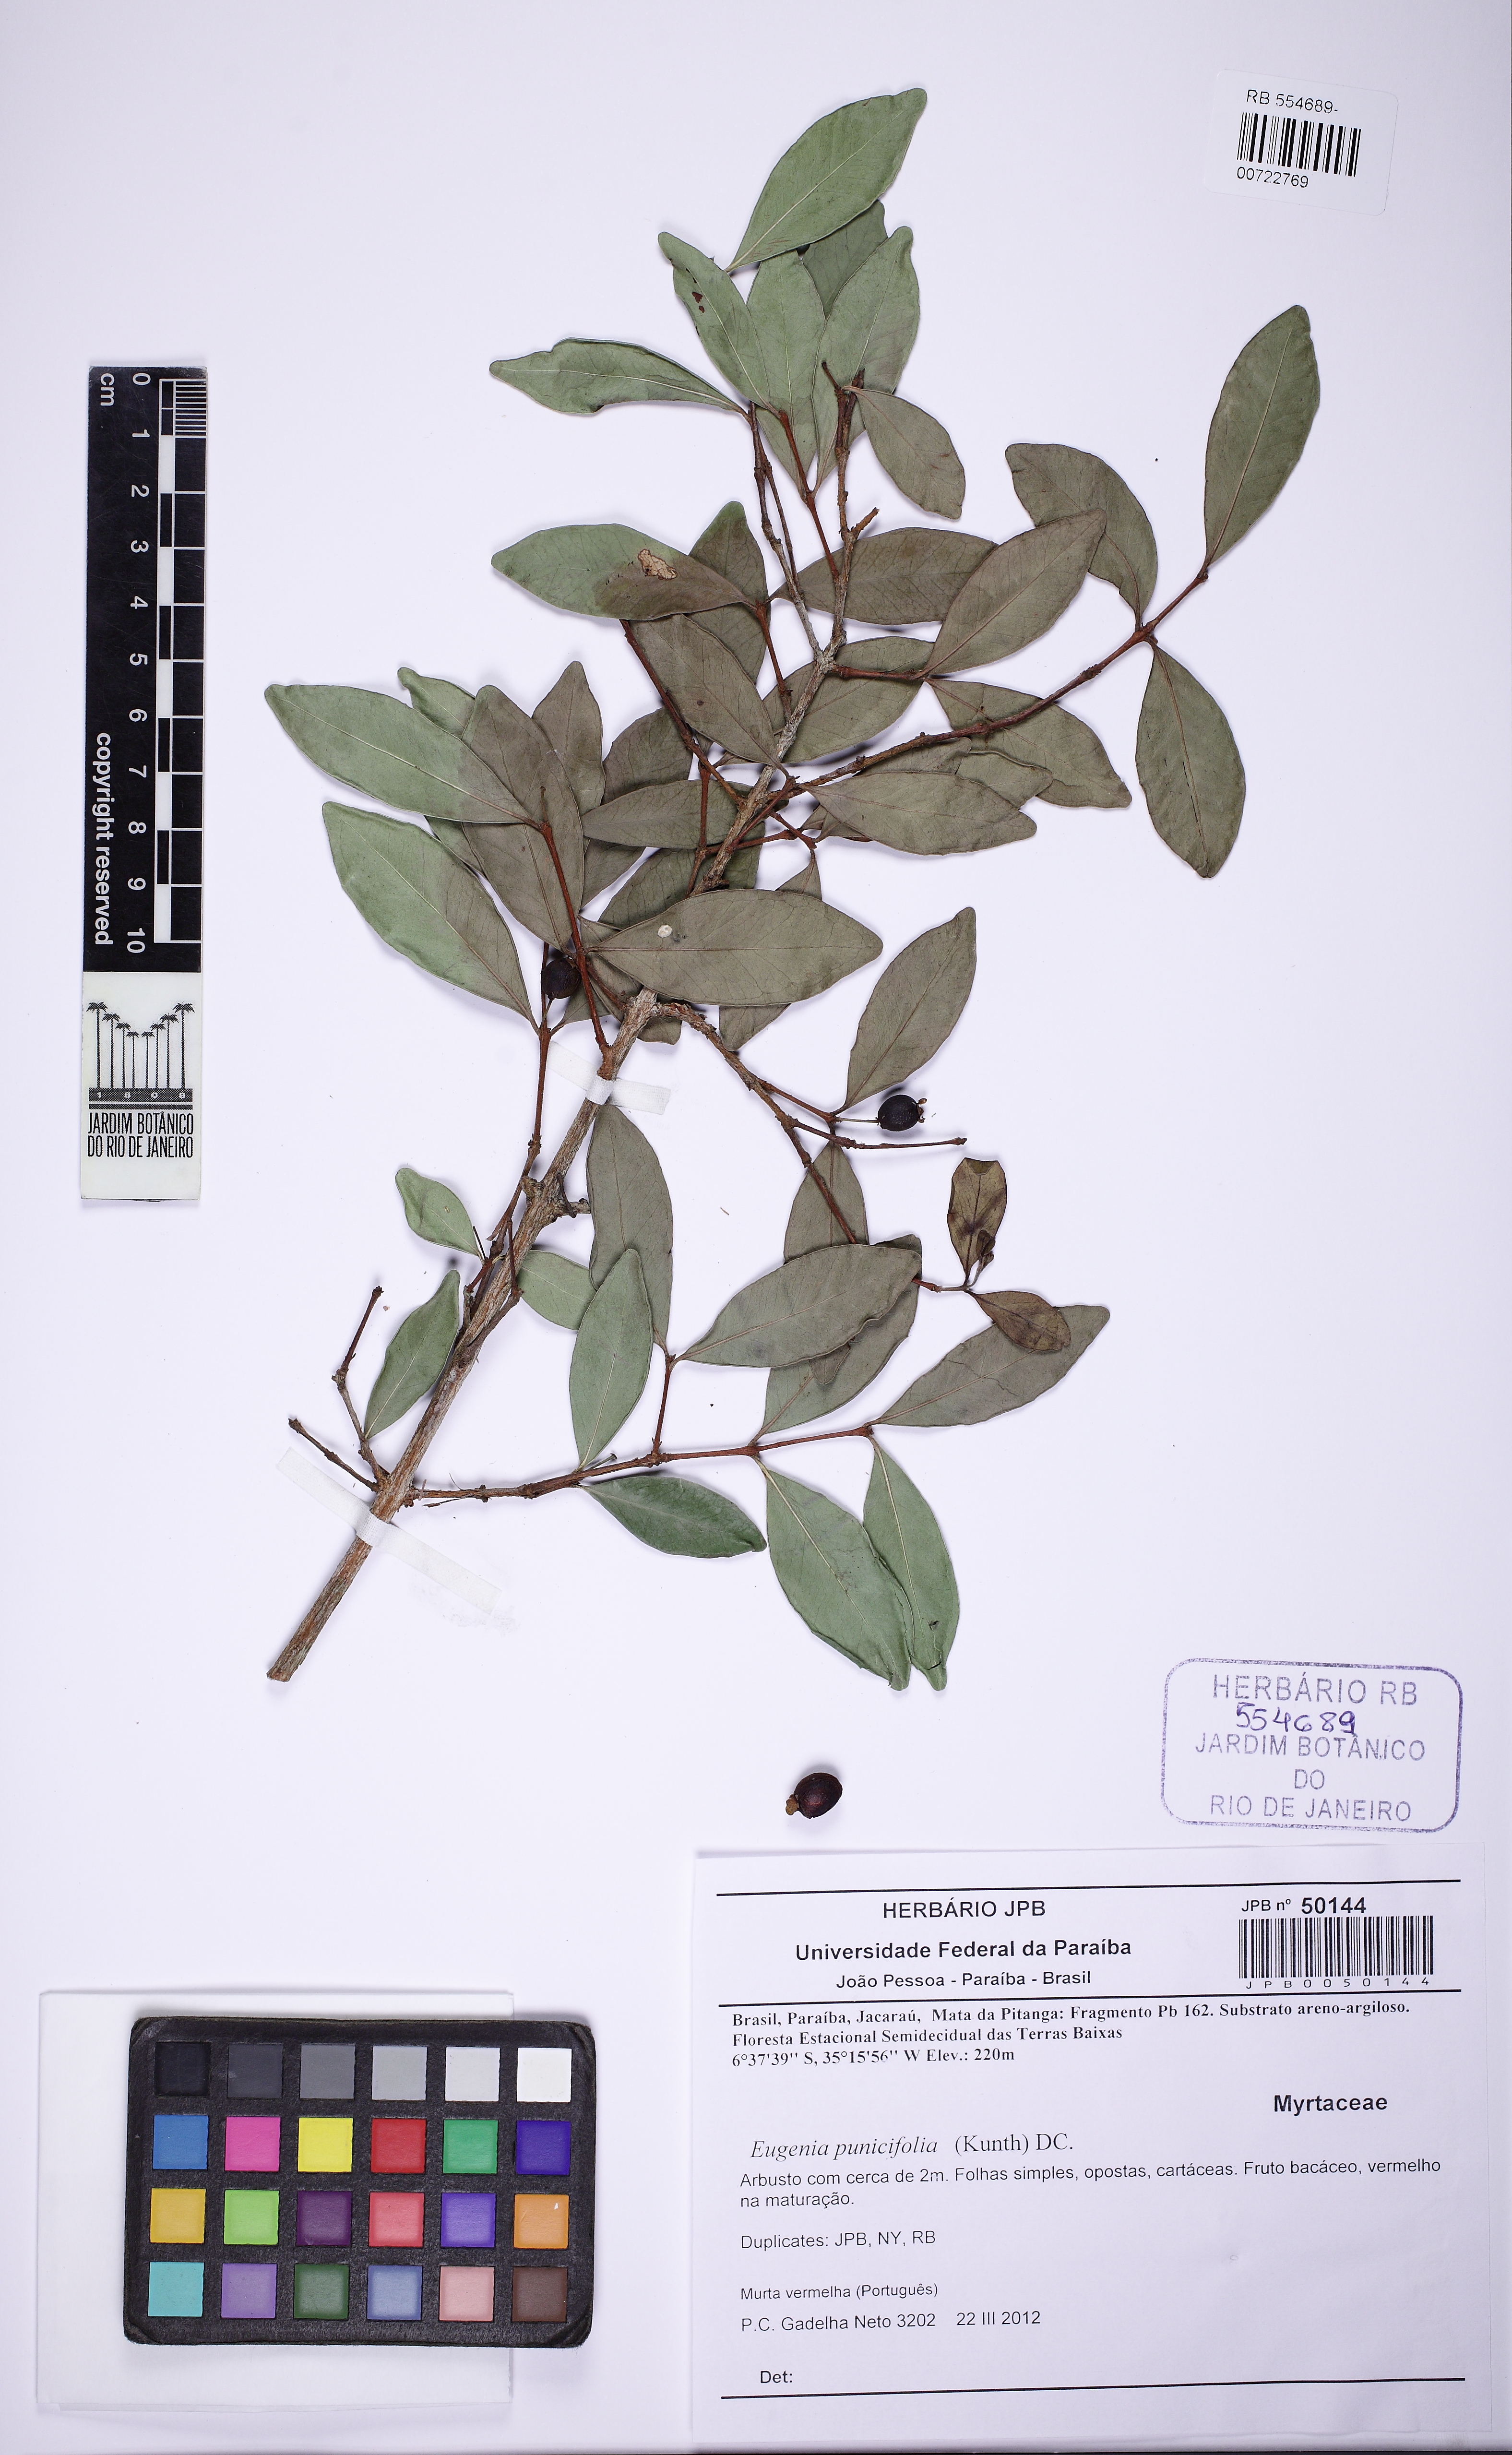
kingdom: Plantae
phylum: Tracheophyta
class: Magnoliopsida
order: Myrtales
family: Myrtaceae
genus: Eugenia
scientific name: Eugenia punicifolia
